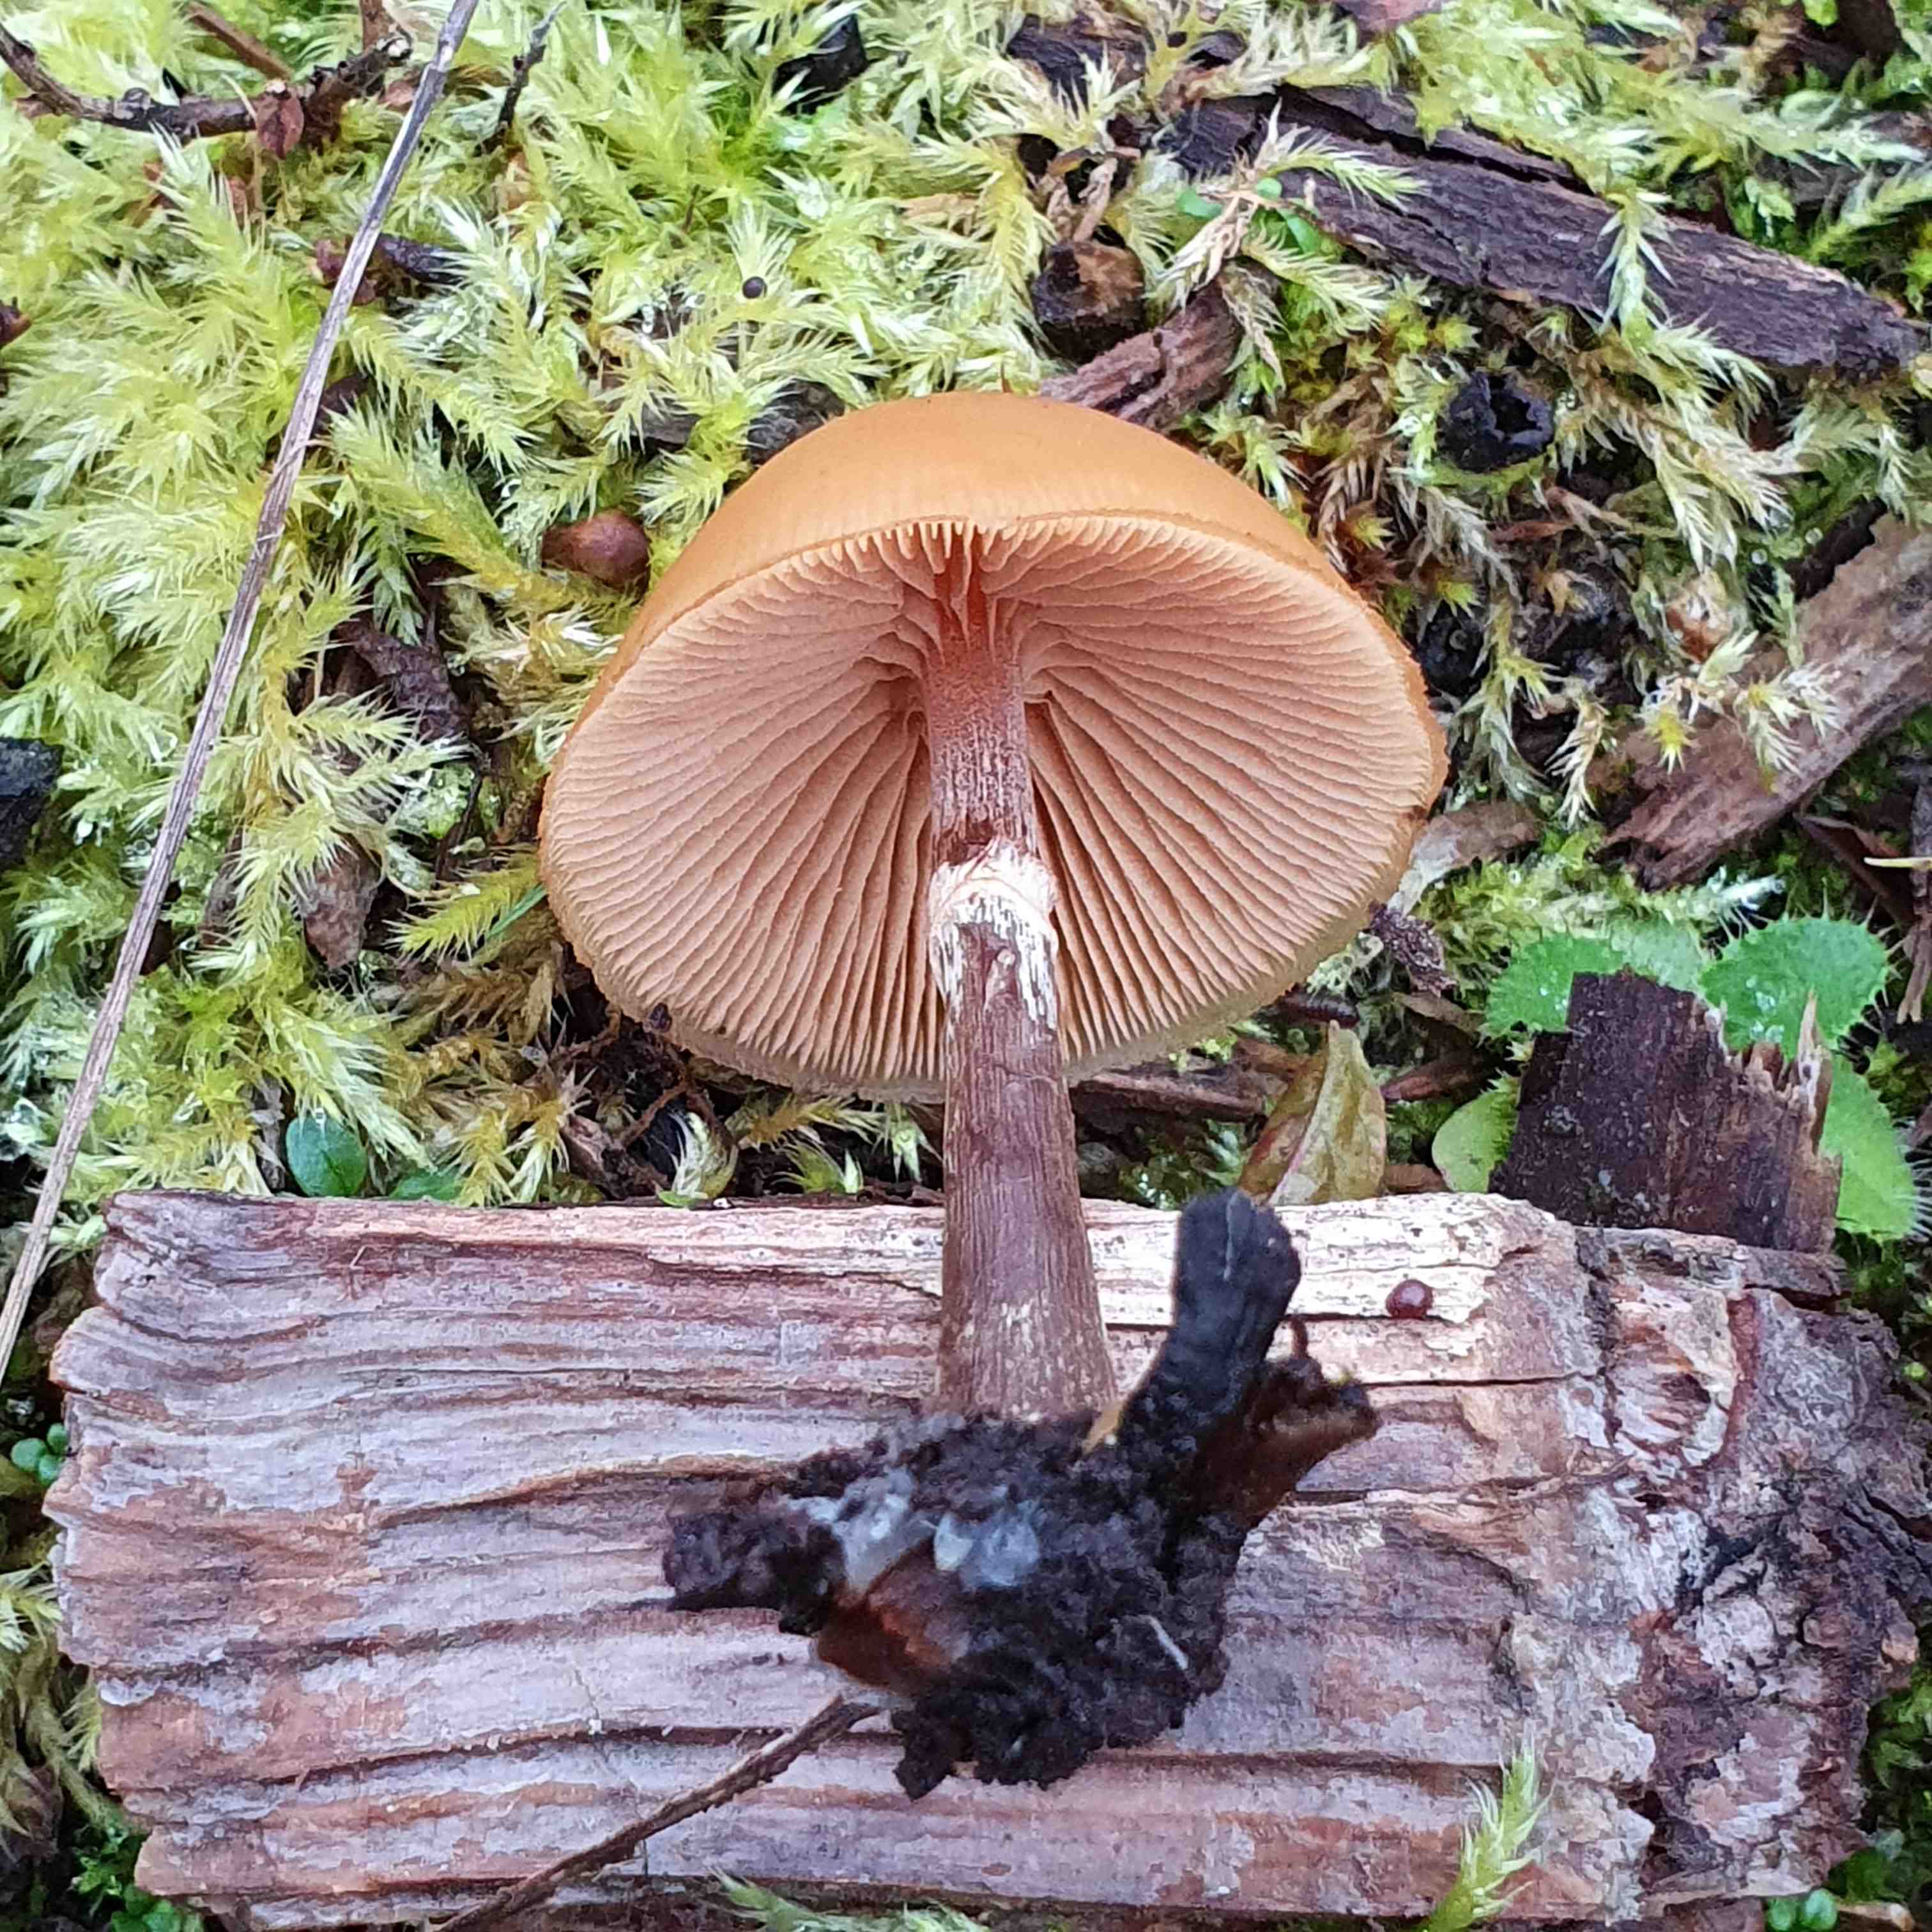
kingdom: Fungi
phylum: Basidiomycota
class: Agaricomycetes
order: Agaricales
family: Hymenogastraceae
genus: Galerina
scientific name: Galerina marginata
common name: randbæltet hjelmhat
